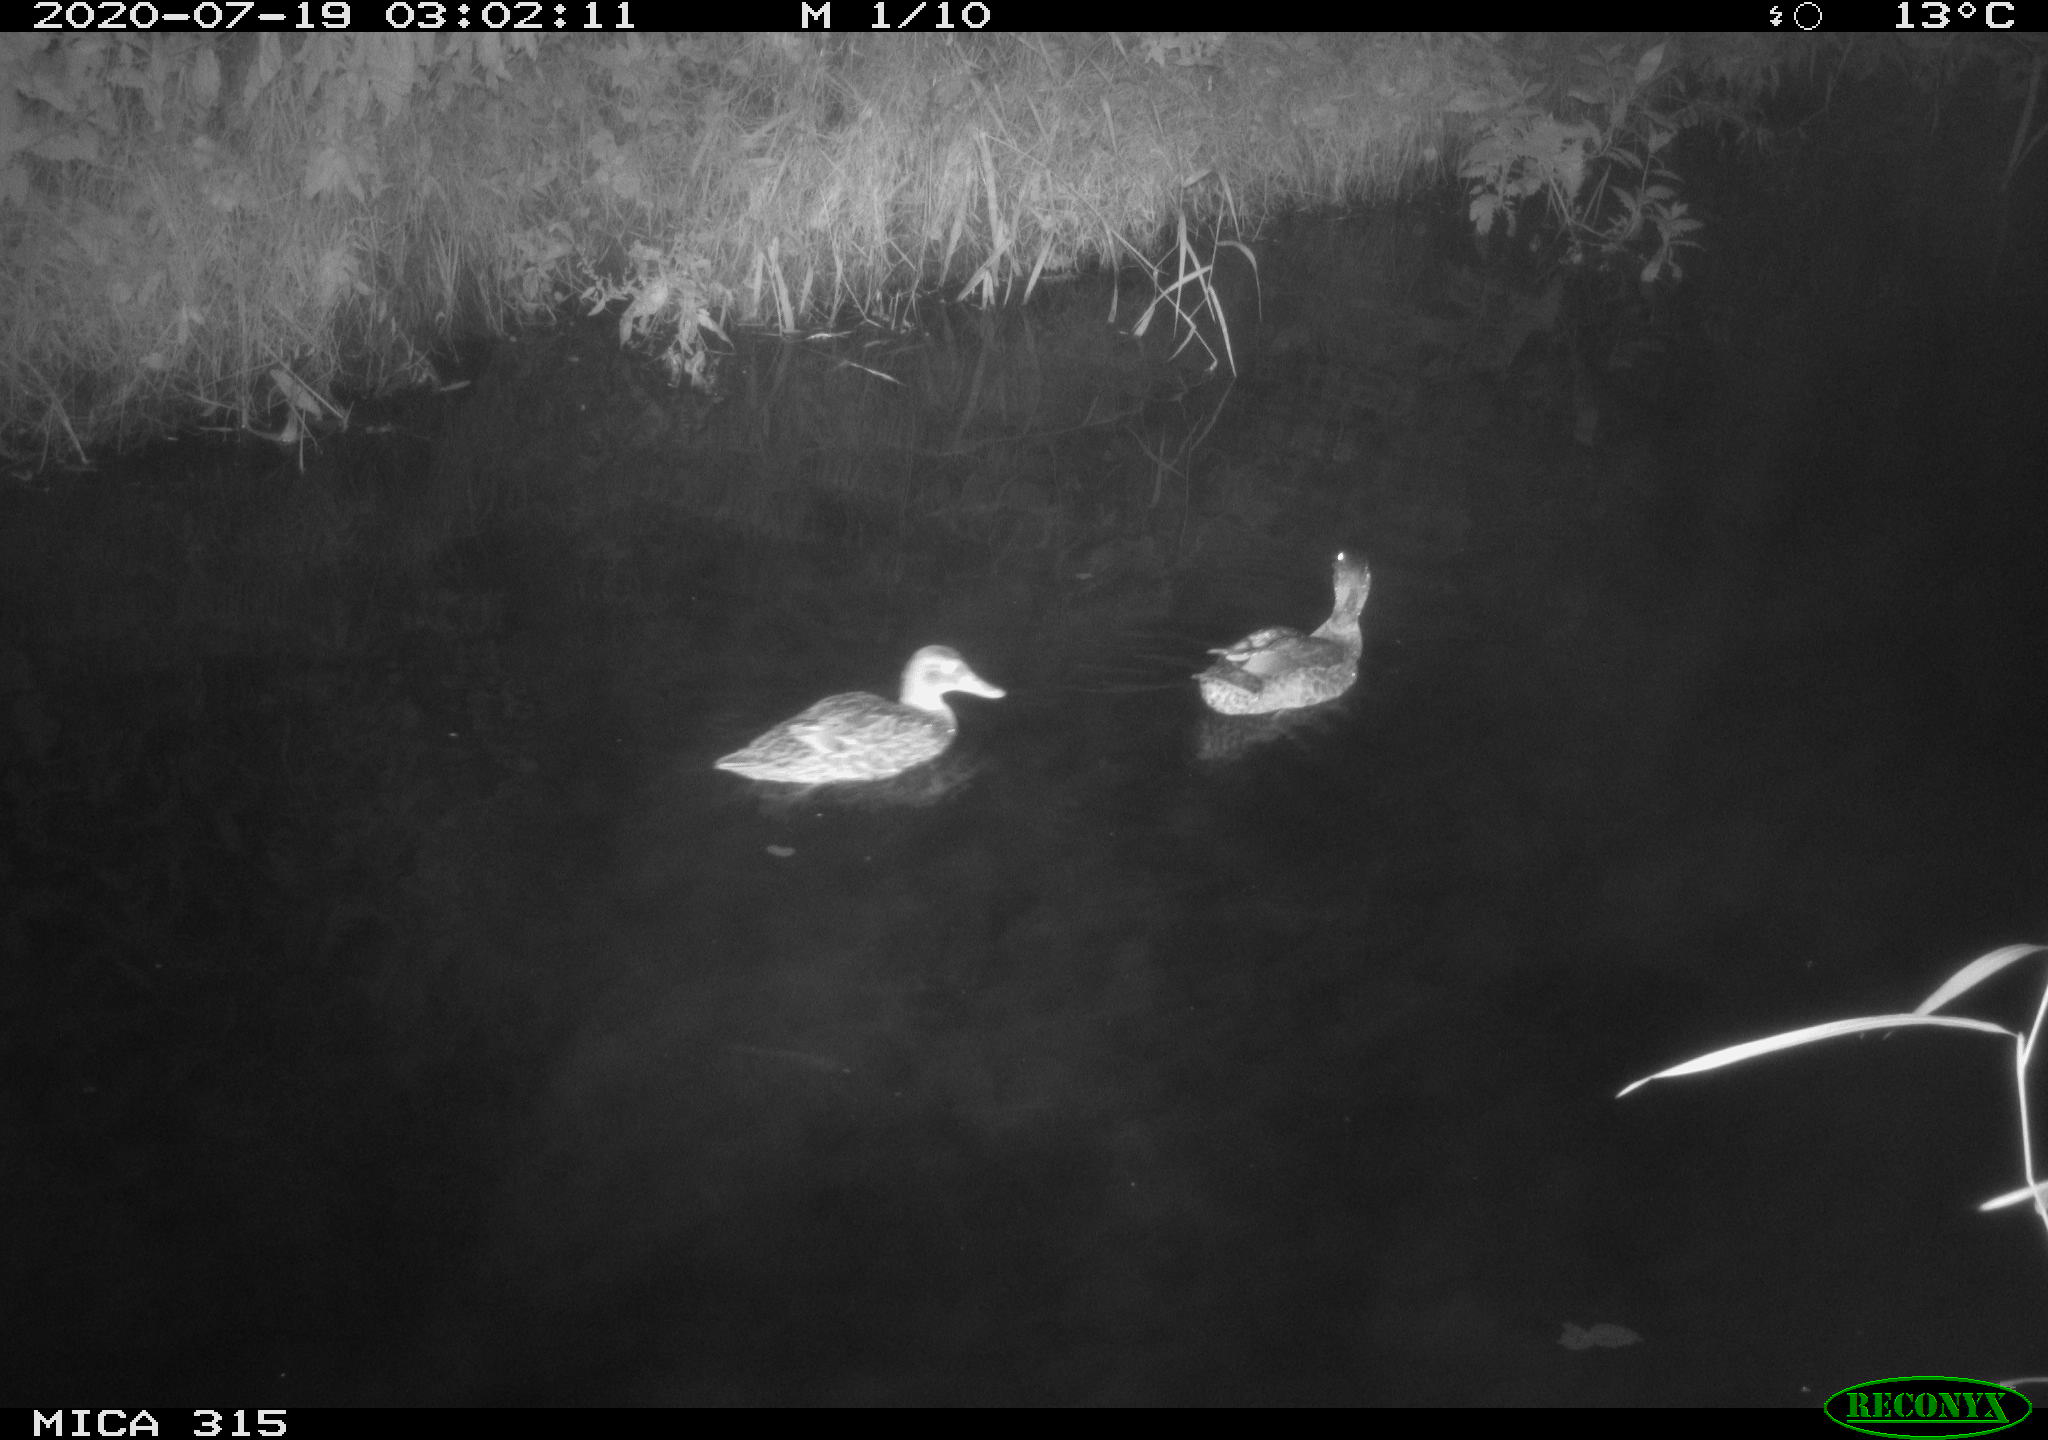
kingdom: Animalia
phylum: Chordata
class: Aves
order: Anseriformes
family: Anatidae
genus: Anas
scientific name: Anas platyrhynchos
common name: Mallard
